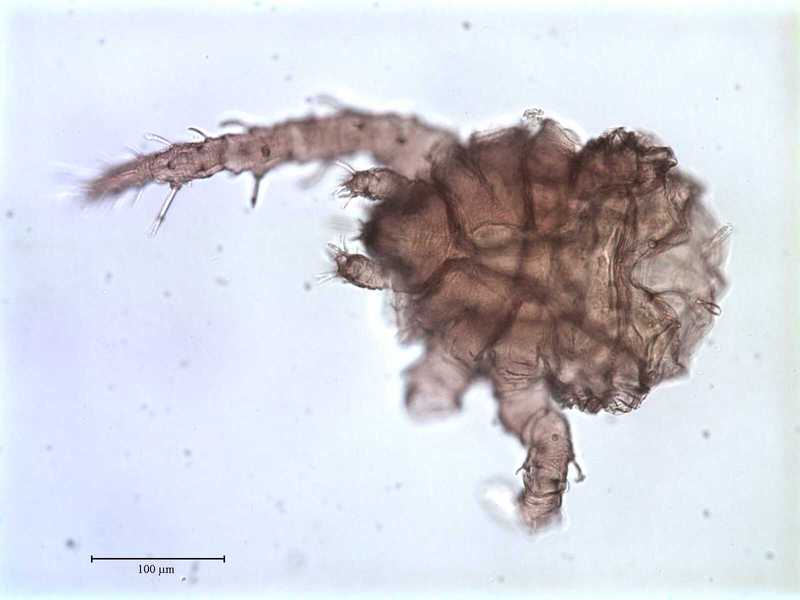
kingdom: Animalia
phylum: Arthropoda
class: Arachnida
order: Trombidiformes
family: Caeculidae
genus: Caeculus
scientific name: Caeculus
